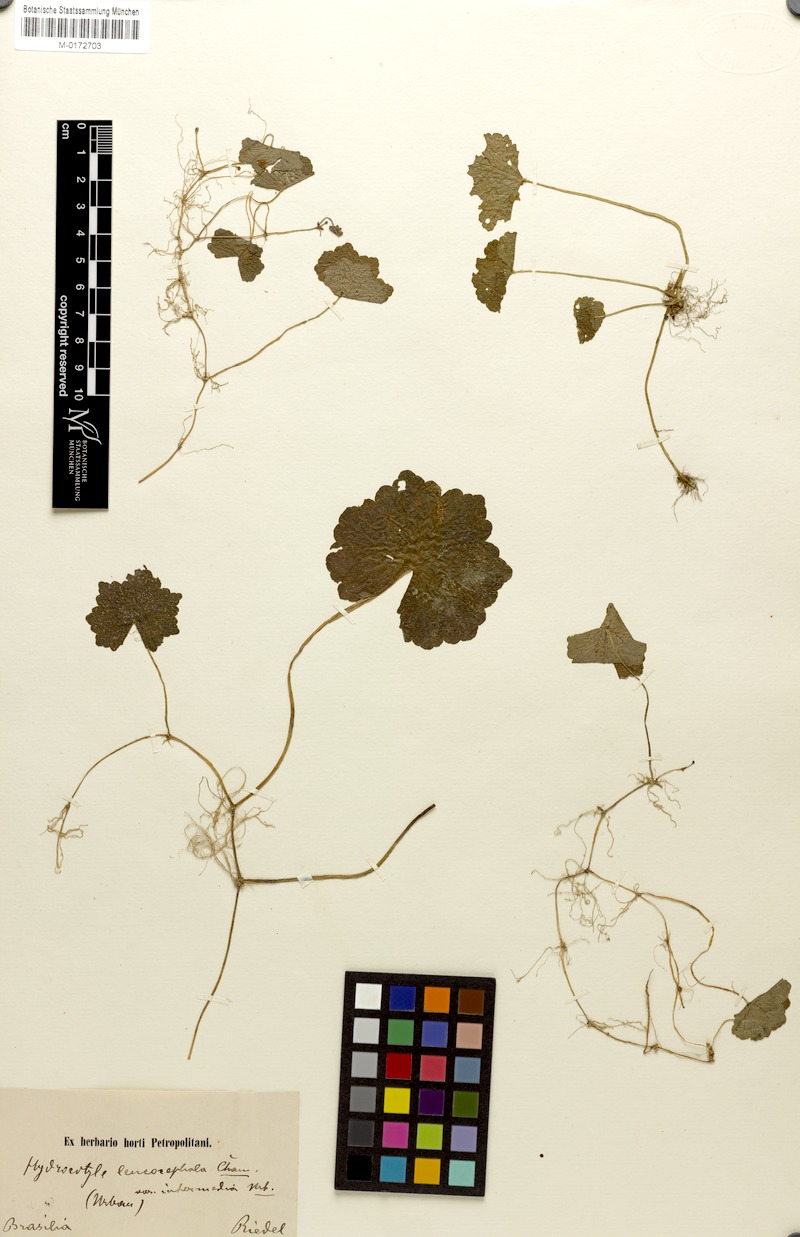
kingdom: Plantae
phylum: Tracheophyta
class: Magnoliopsida
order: Apiales
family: Araliaceae
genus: Hydrocotyle
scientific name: Hydrocotyle leucocephala
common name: Brazilian pennywort
